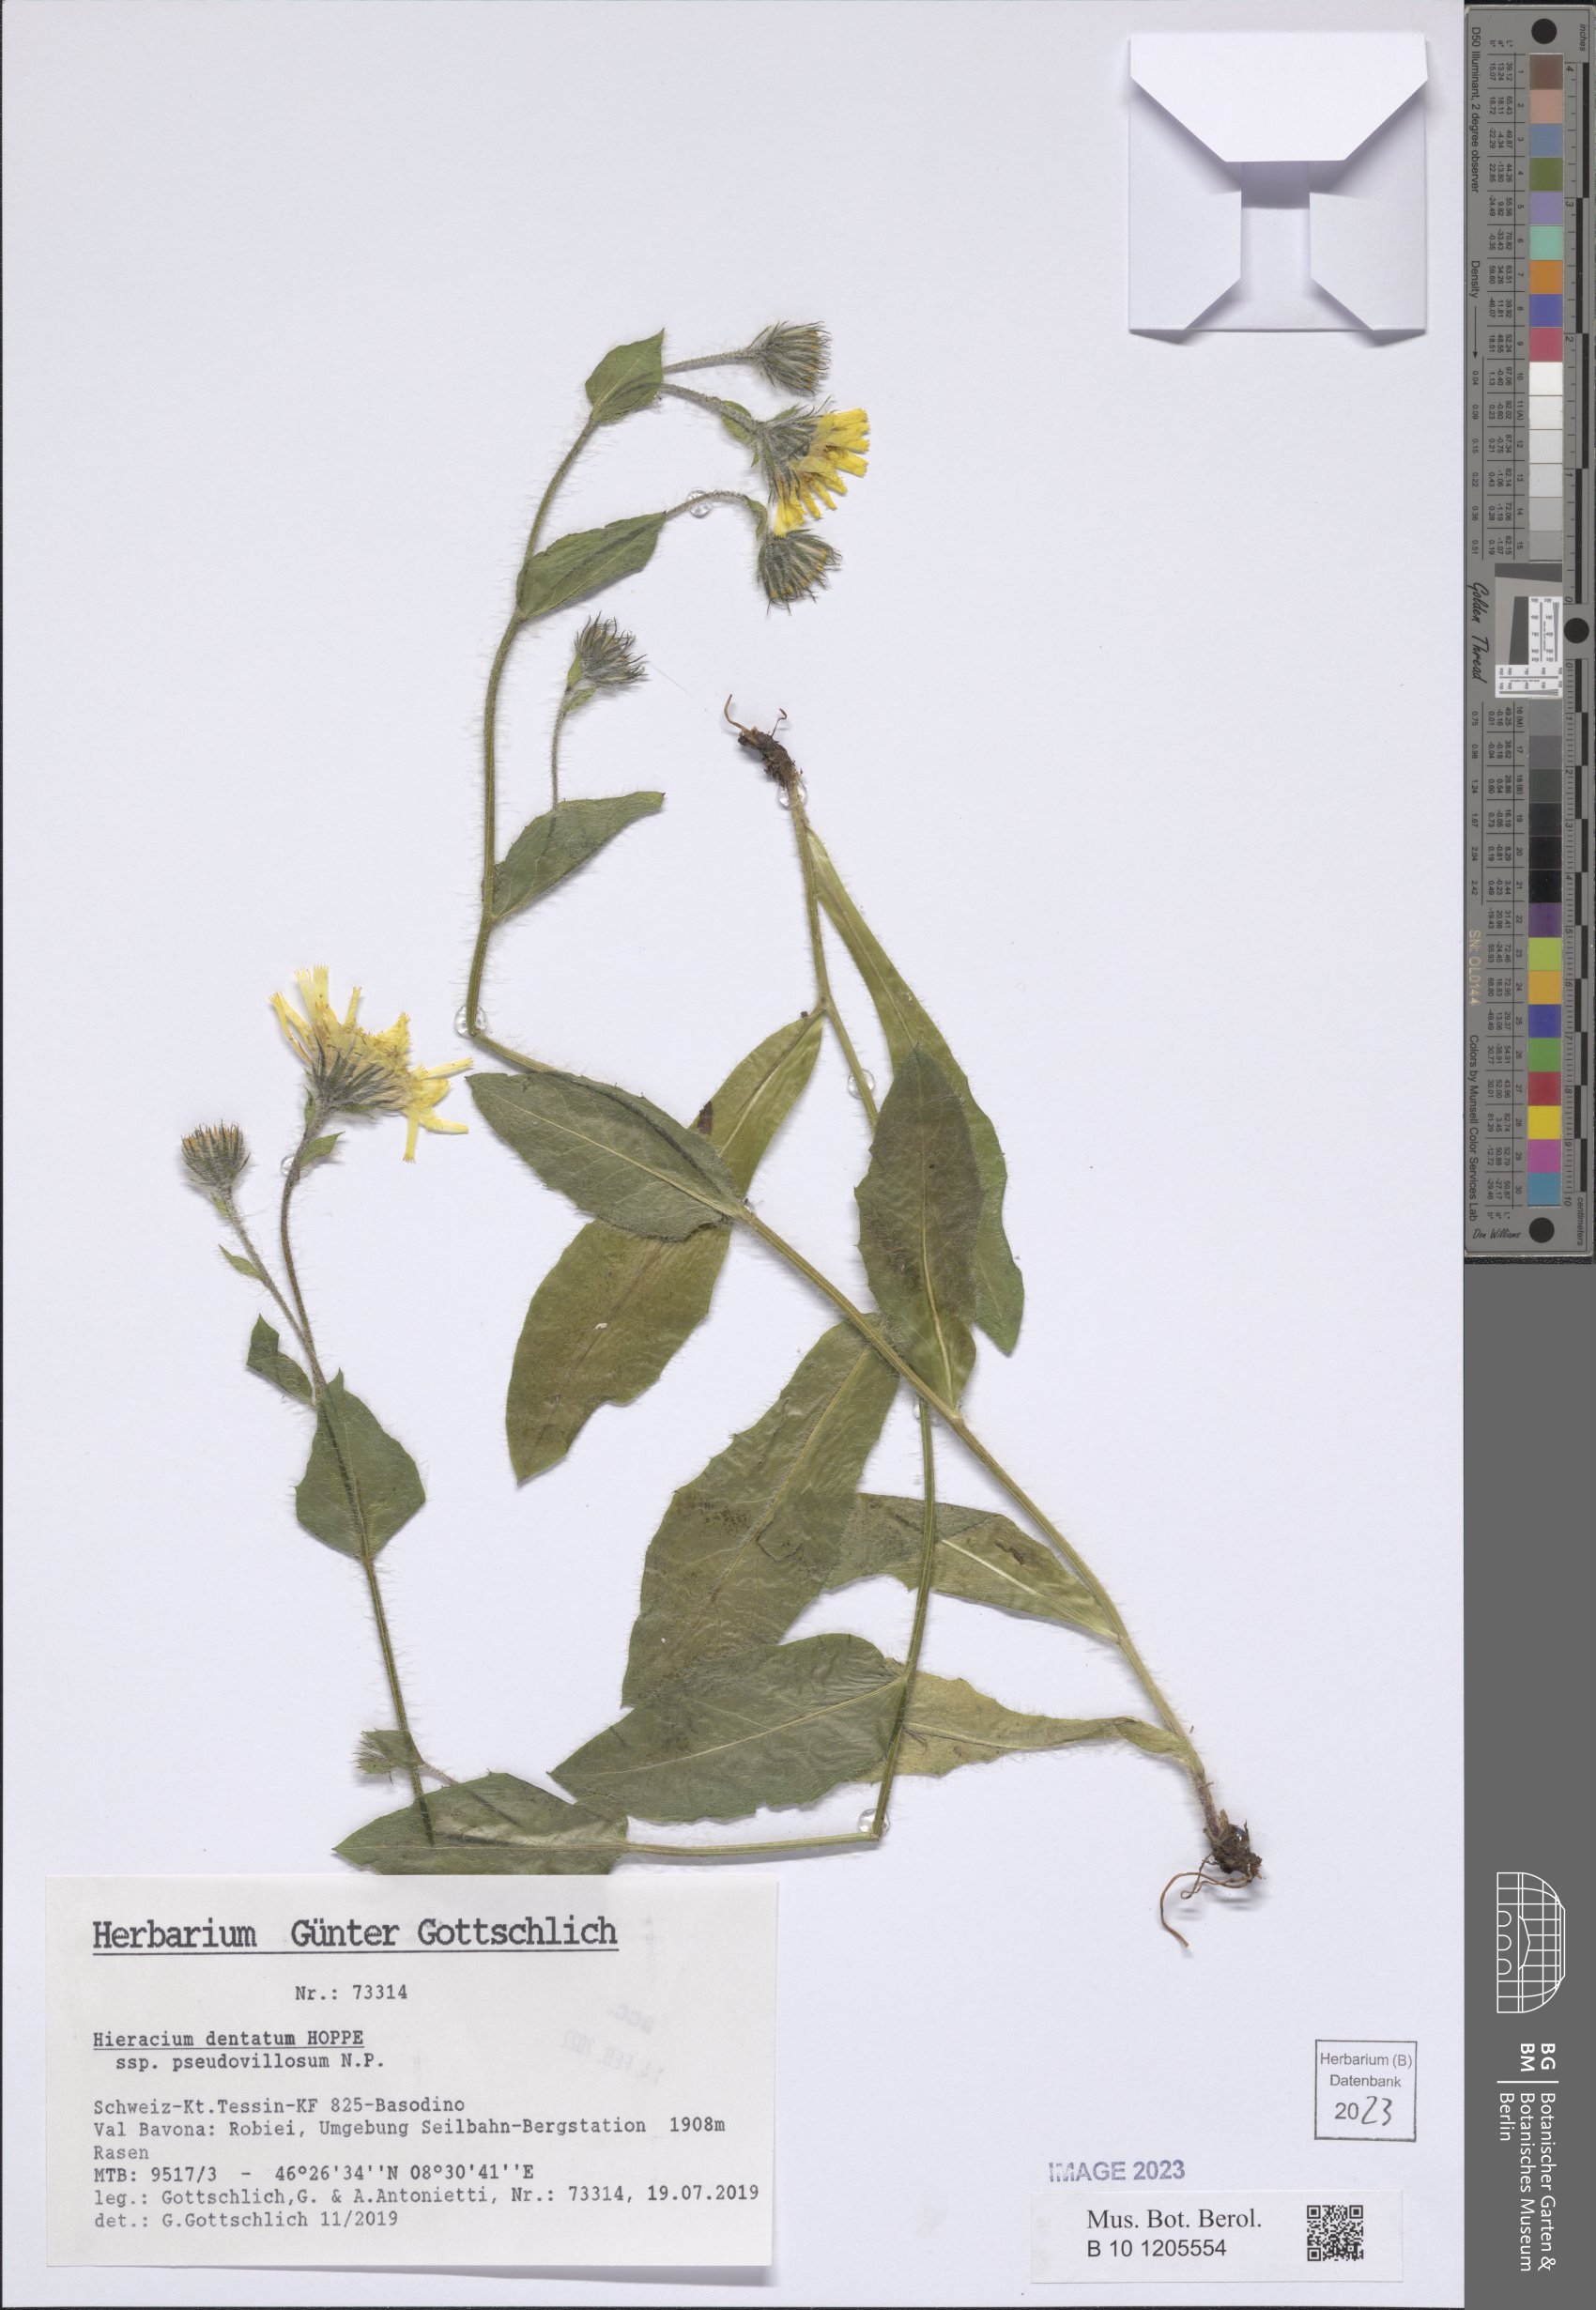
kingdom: Plantae
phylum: Tracheophyta
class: Magnoliopsida
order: Asterales
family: Asteraceae
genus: Hieracium
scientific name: Hieracium dentatum
